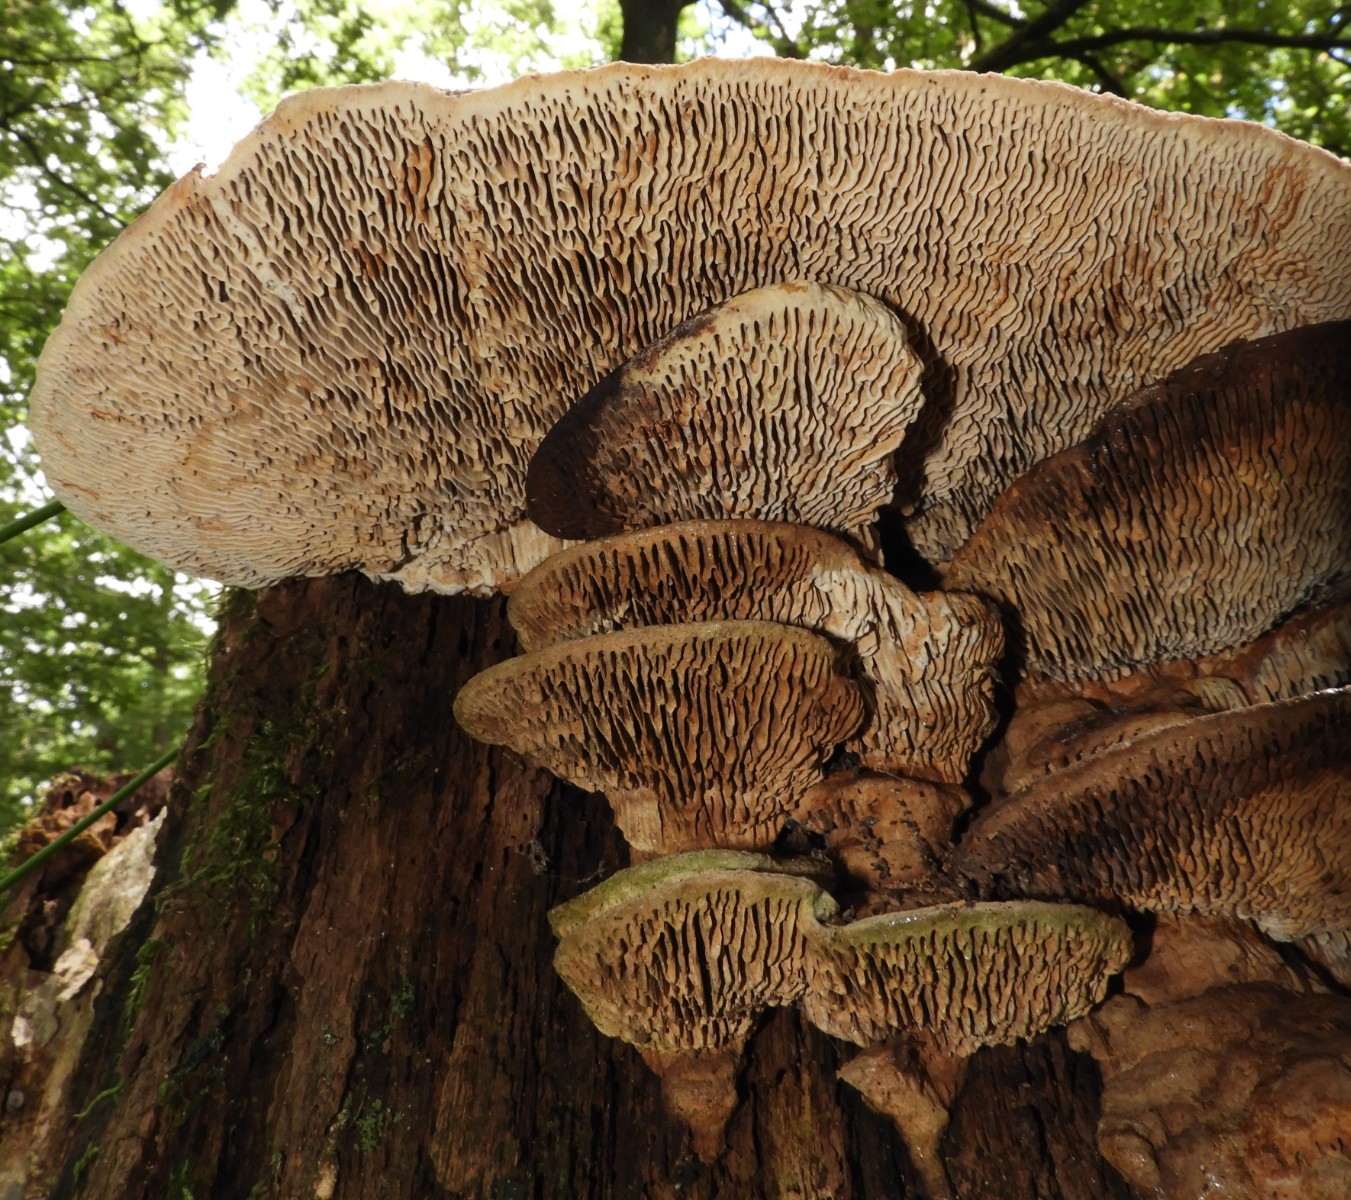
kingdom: Fungi
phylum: Basidiomycota
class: Agaricomycetes
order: Polyporales
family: Fomitopsidaceae
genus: Daedalea
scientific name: Daedalea quercina
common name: ege-labyrintsvamp
